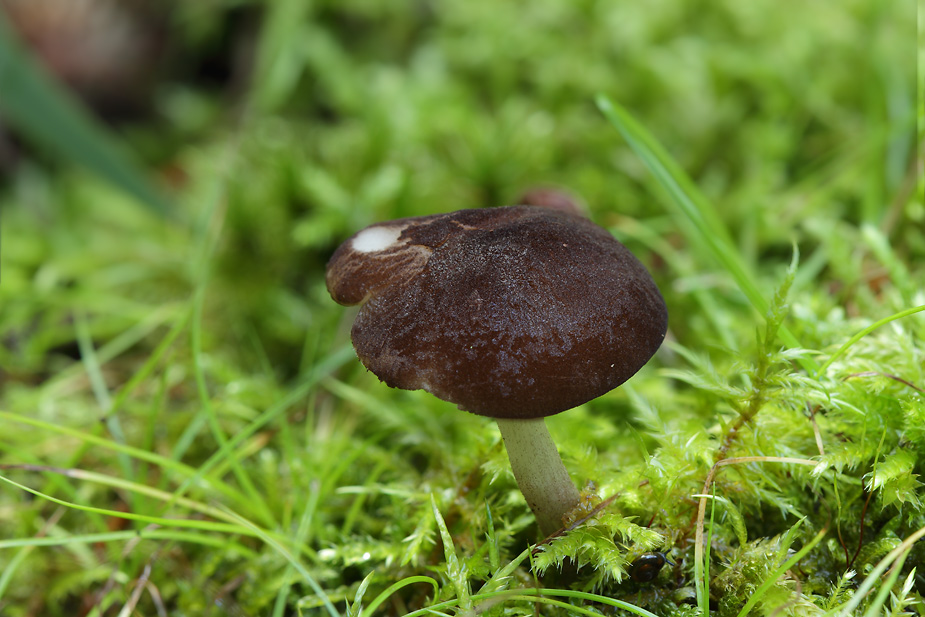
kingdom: Fungi
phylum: Basidiomycota
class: Agaricomycetes
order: Agaricales
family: Pluteaceae
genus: Pluteus
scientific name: Pluteus podospileus
